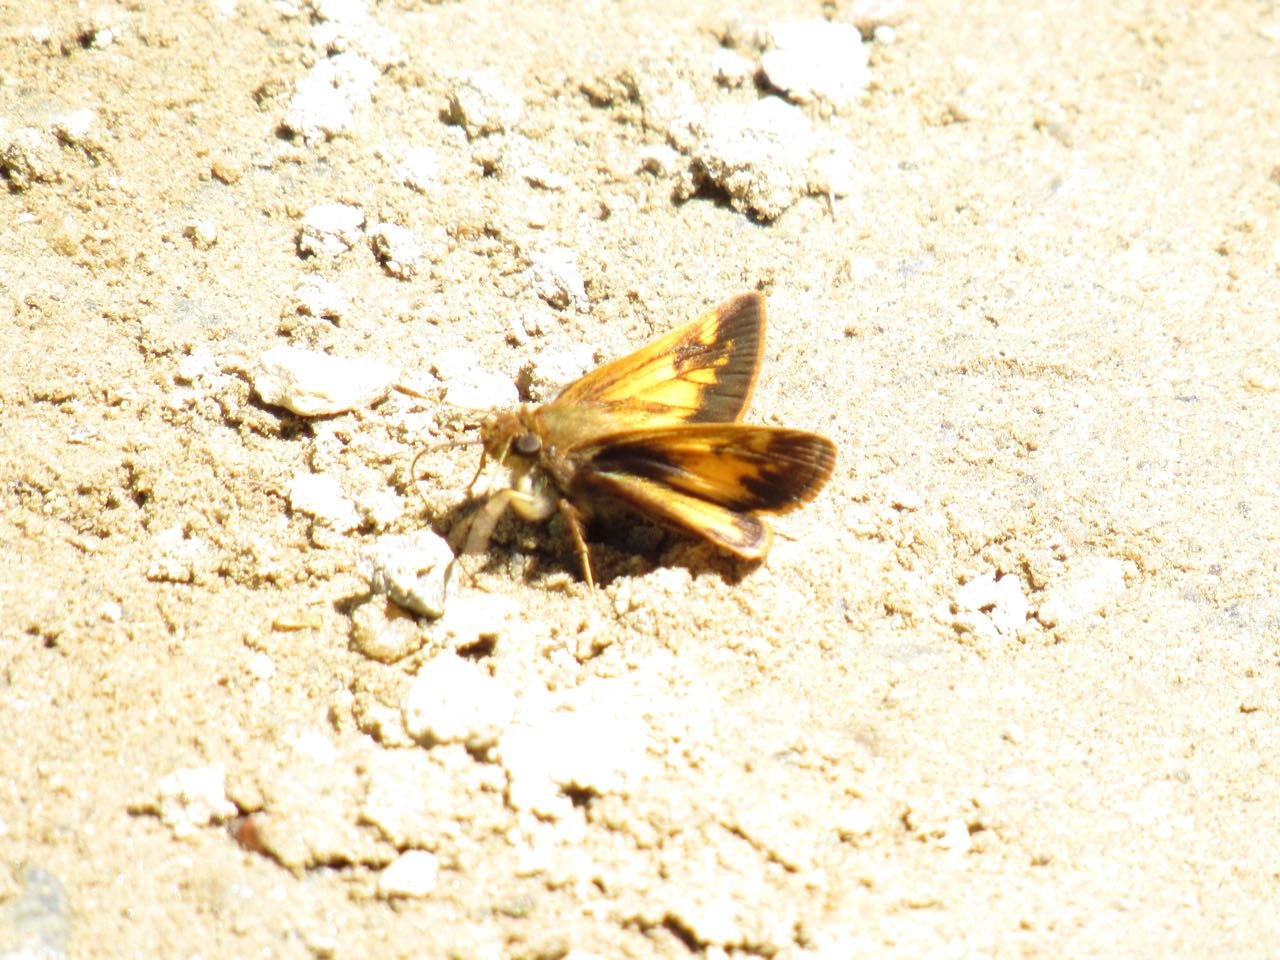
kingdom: Animalia
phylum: Arthropoda
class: Insecta
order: Lepidoptera
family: Hesperiidae
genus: Lon
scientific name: Lon hobomok
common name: Hobomok Skipper
